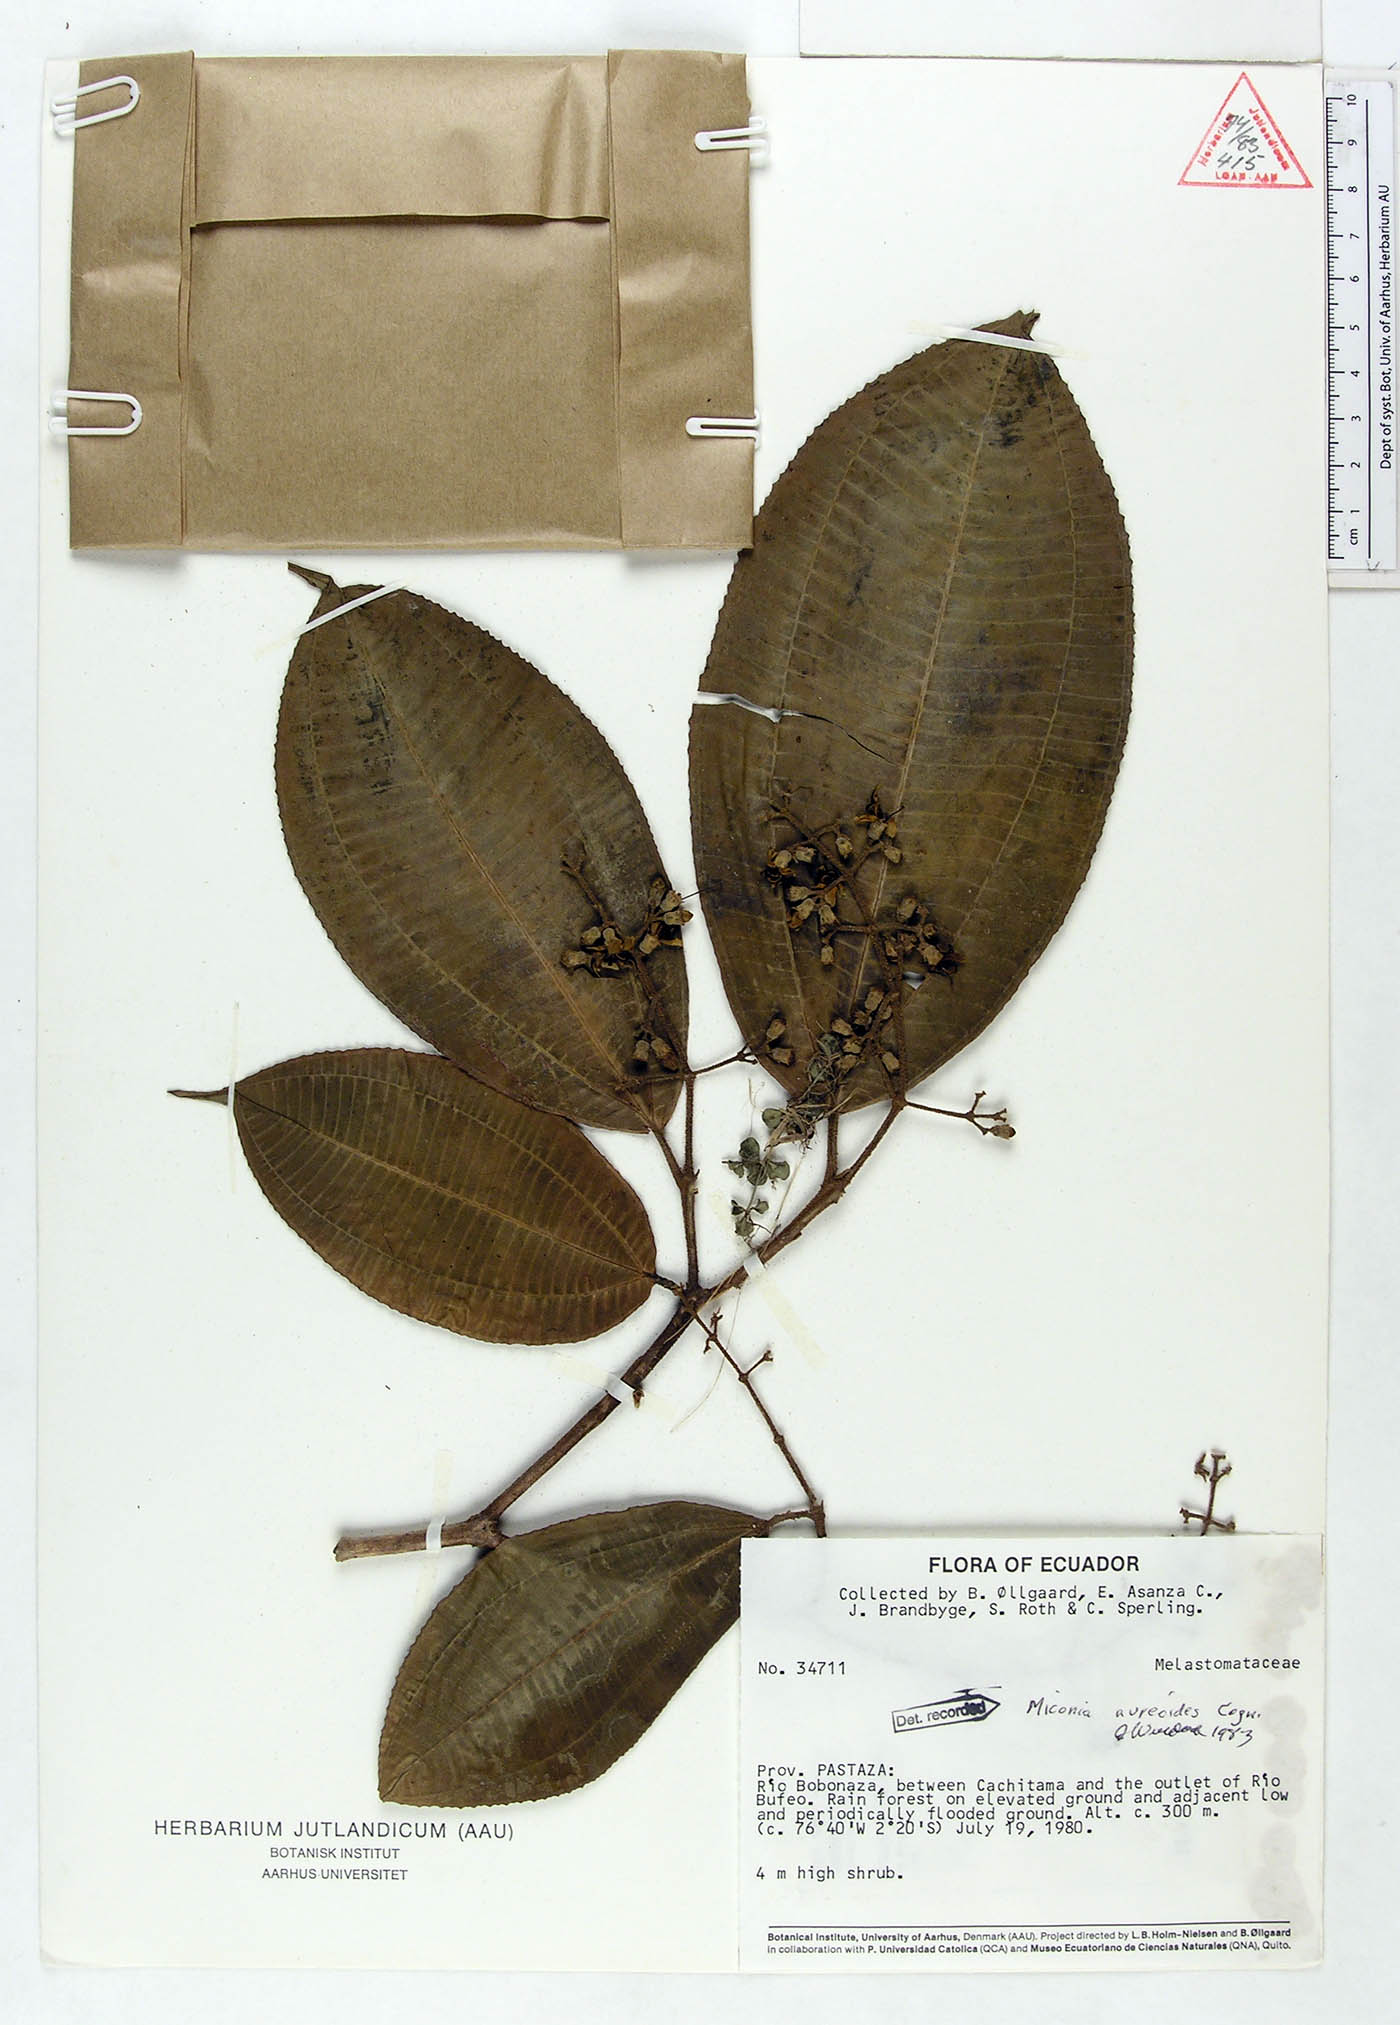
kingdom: Plantae
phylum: Tracheophyta
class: Magnoliopsida
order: Myrtales
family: Melastomataceae
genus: Miconia
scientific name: Miconia aureoides
